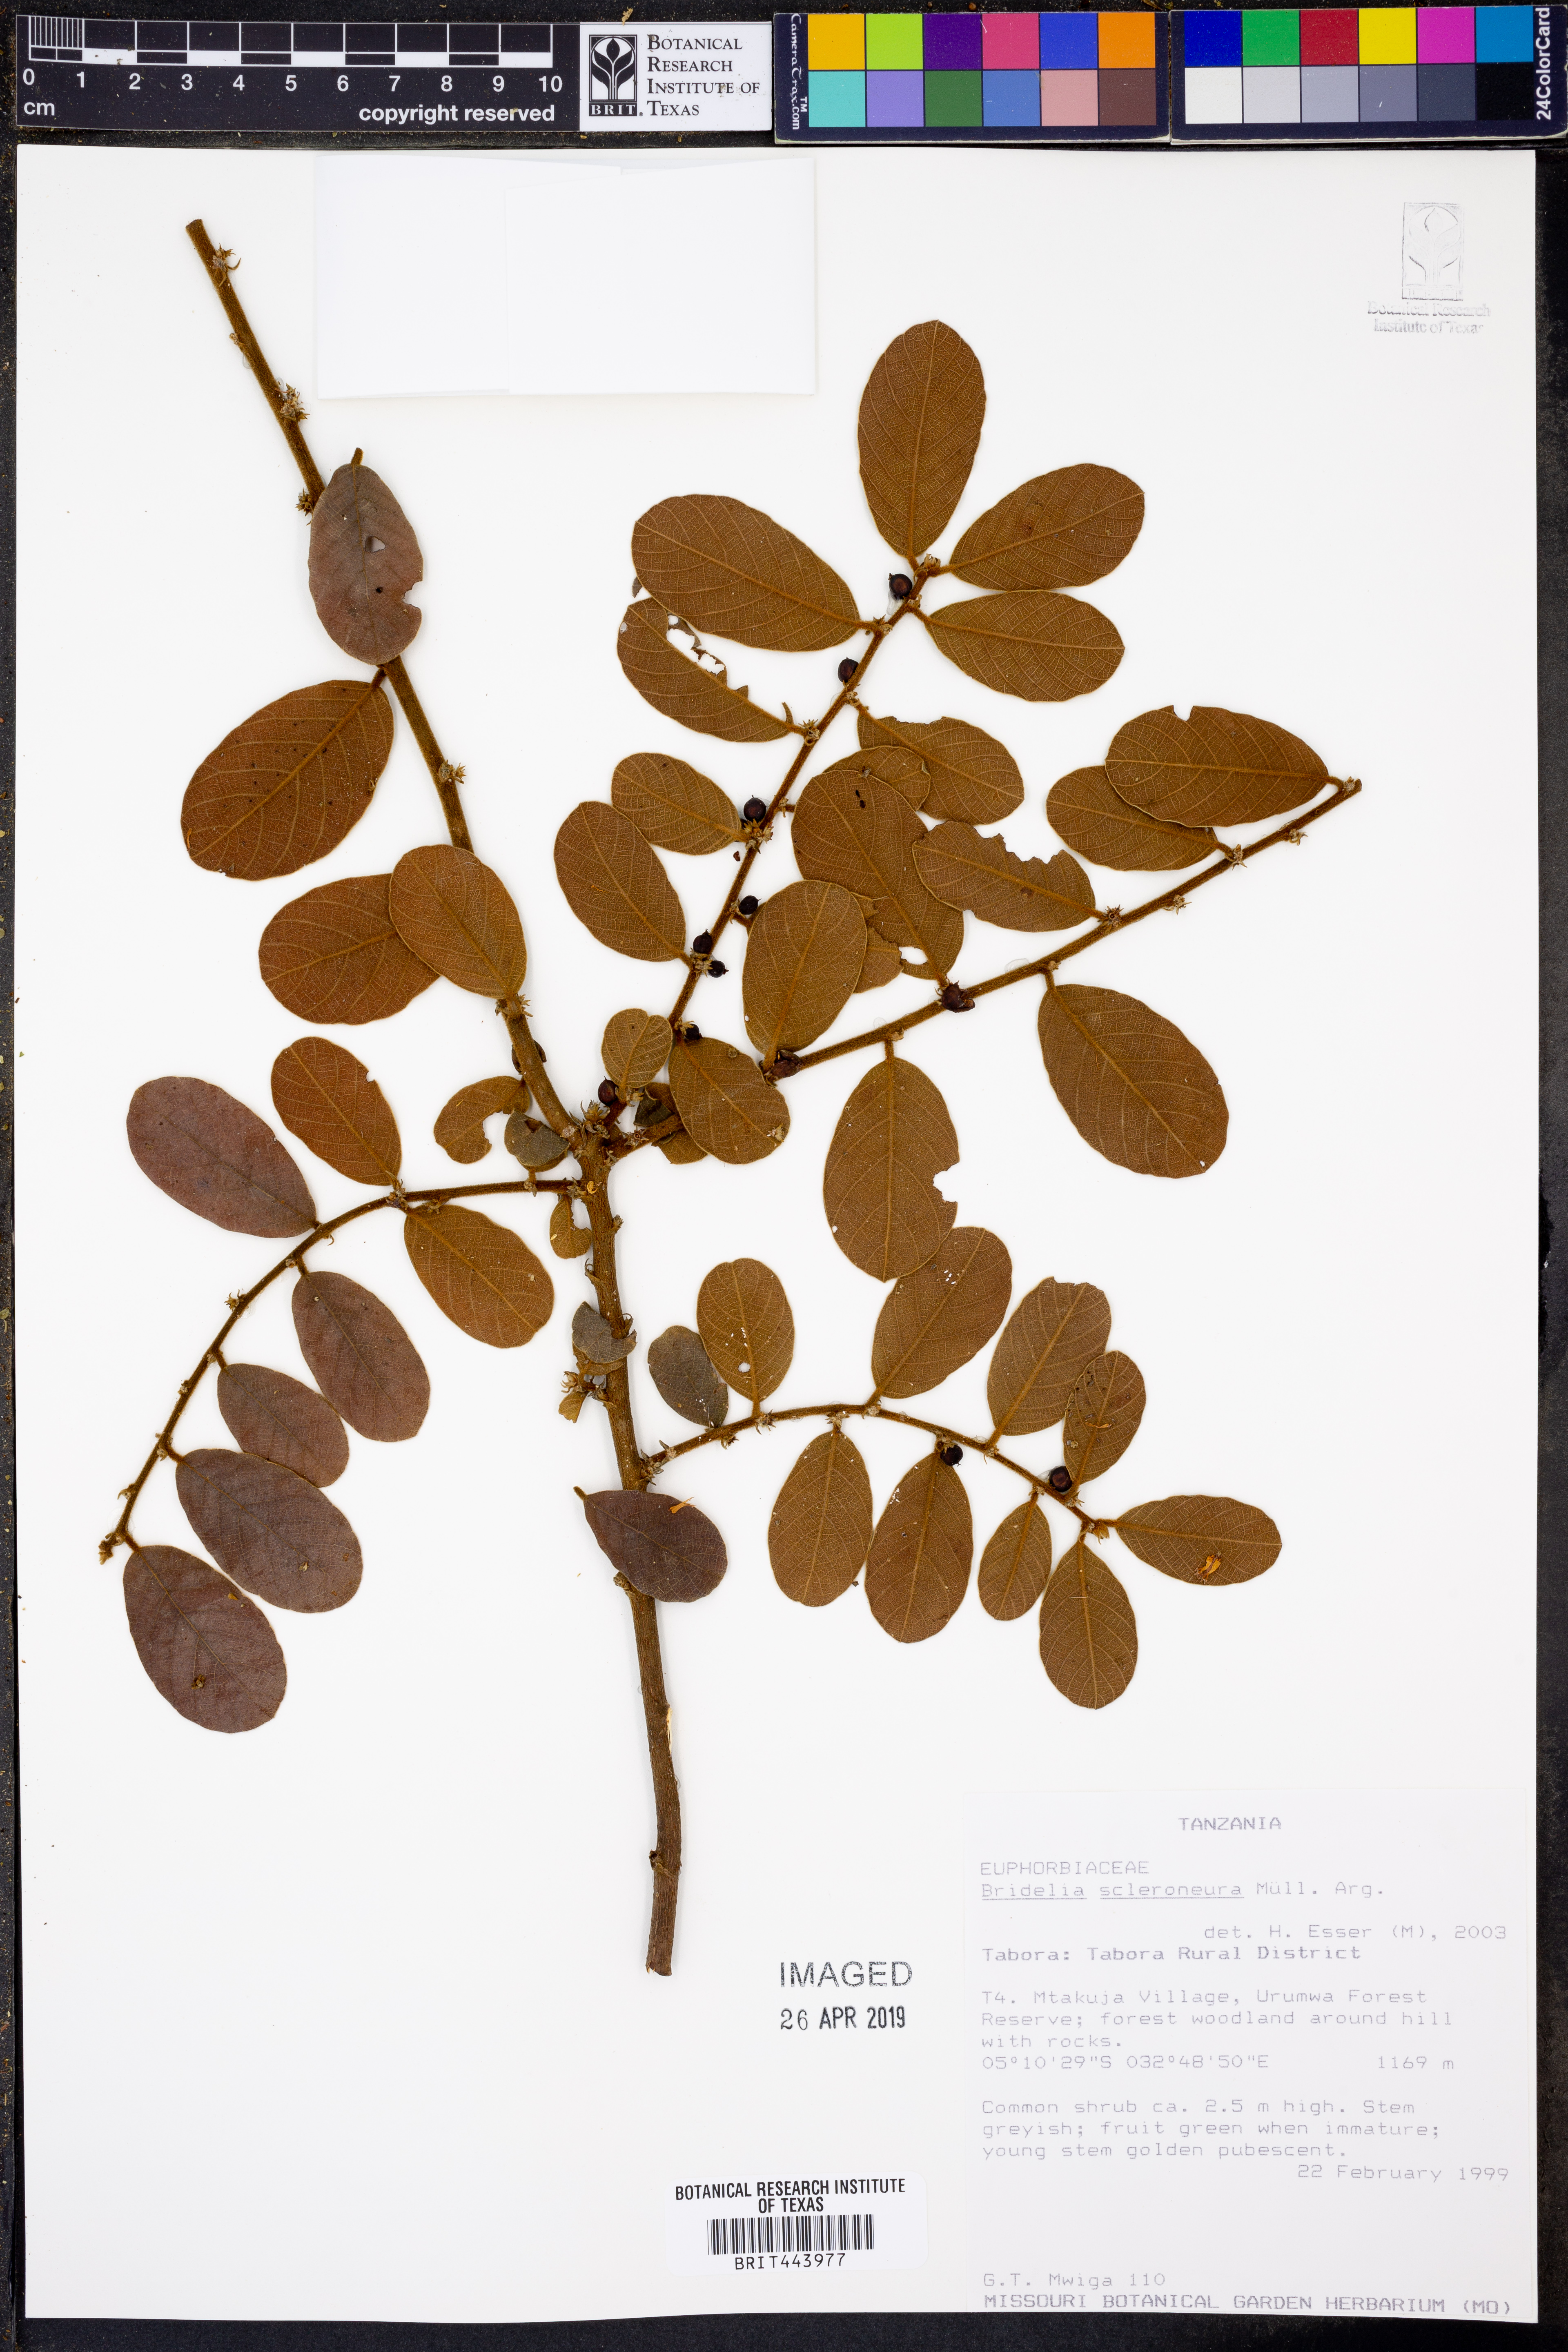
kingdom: Plantae
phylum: Tracheophyta
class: Magnoliopsida
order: Malpighiales
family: Phyllanthaceae
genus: Bridelia
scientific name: Bridelia scleroneura
